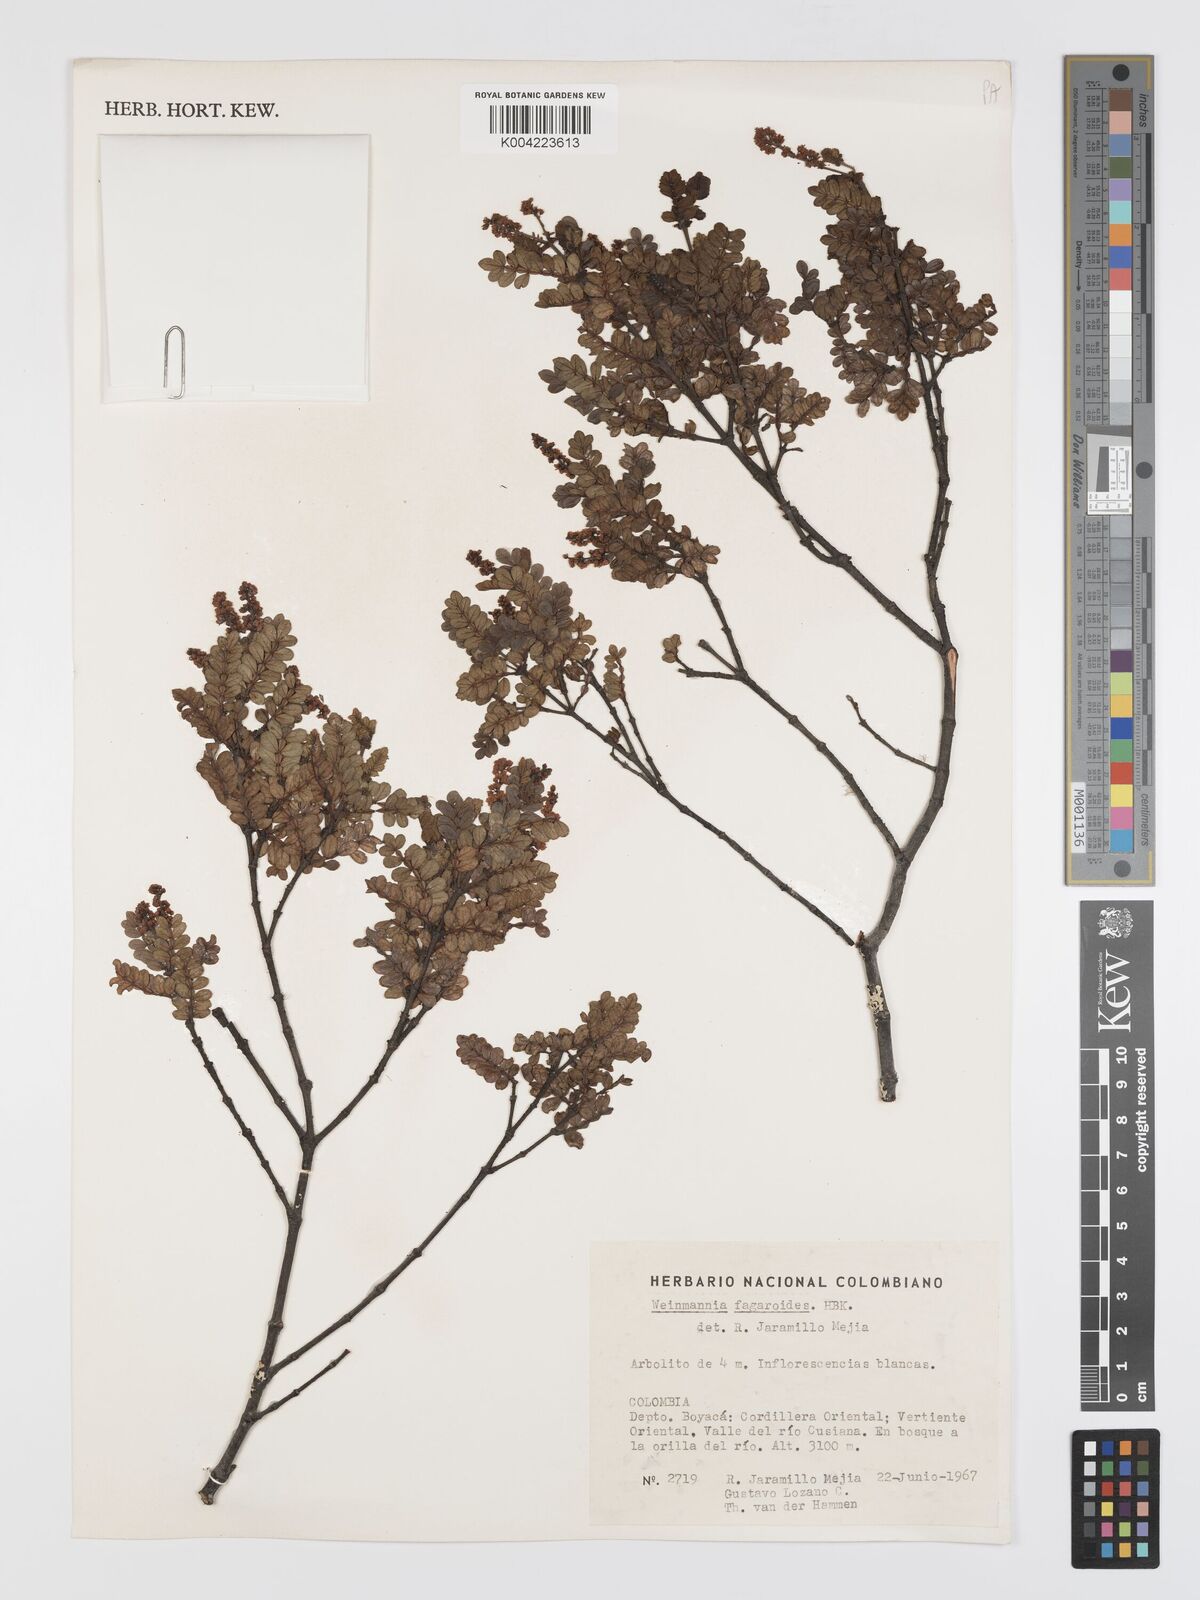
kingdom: Plantae
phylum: Tracheophyta
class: Magnoliopsida
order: Oxalidales
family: Cunoniaceae
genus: Weinmannia
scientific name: Weinmannia fagaroides
